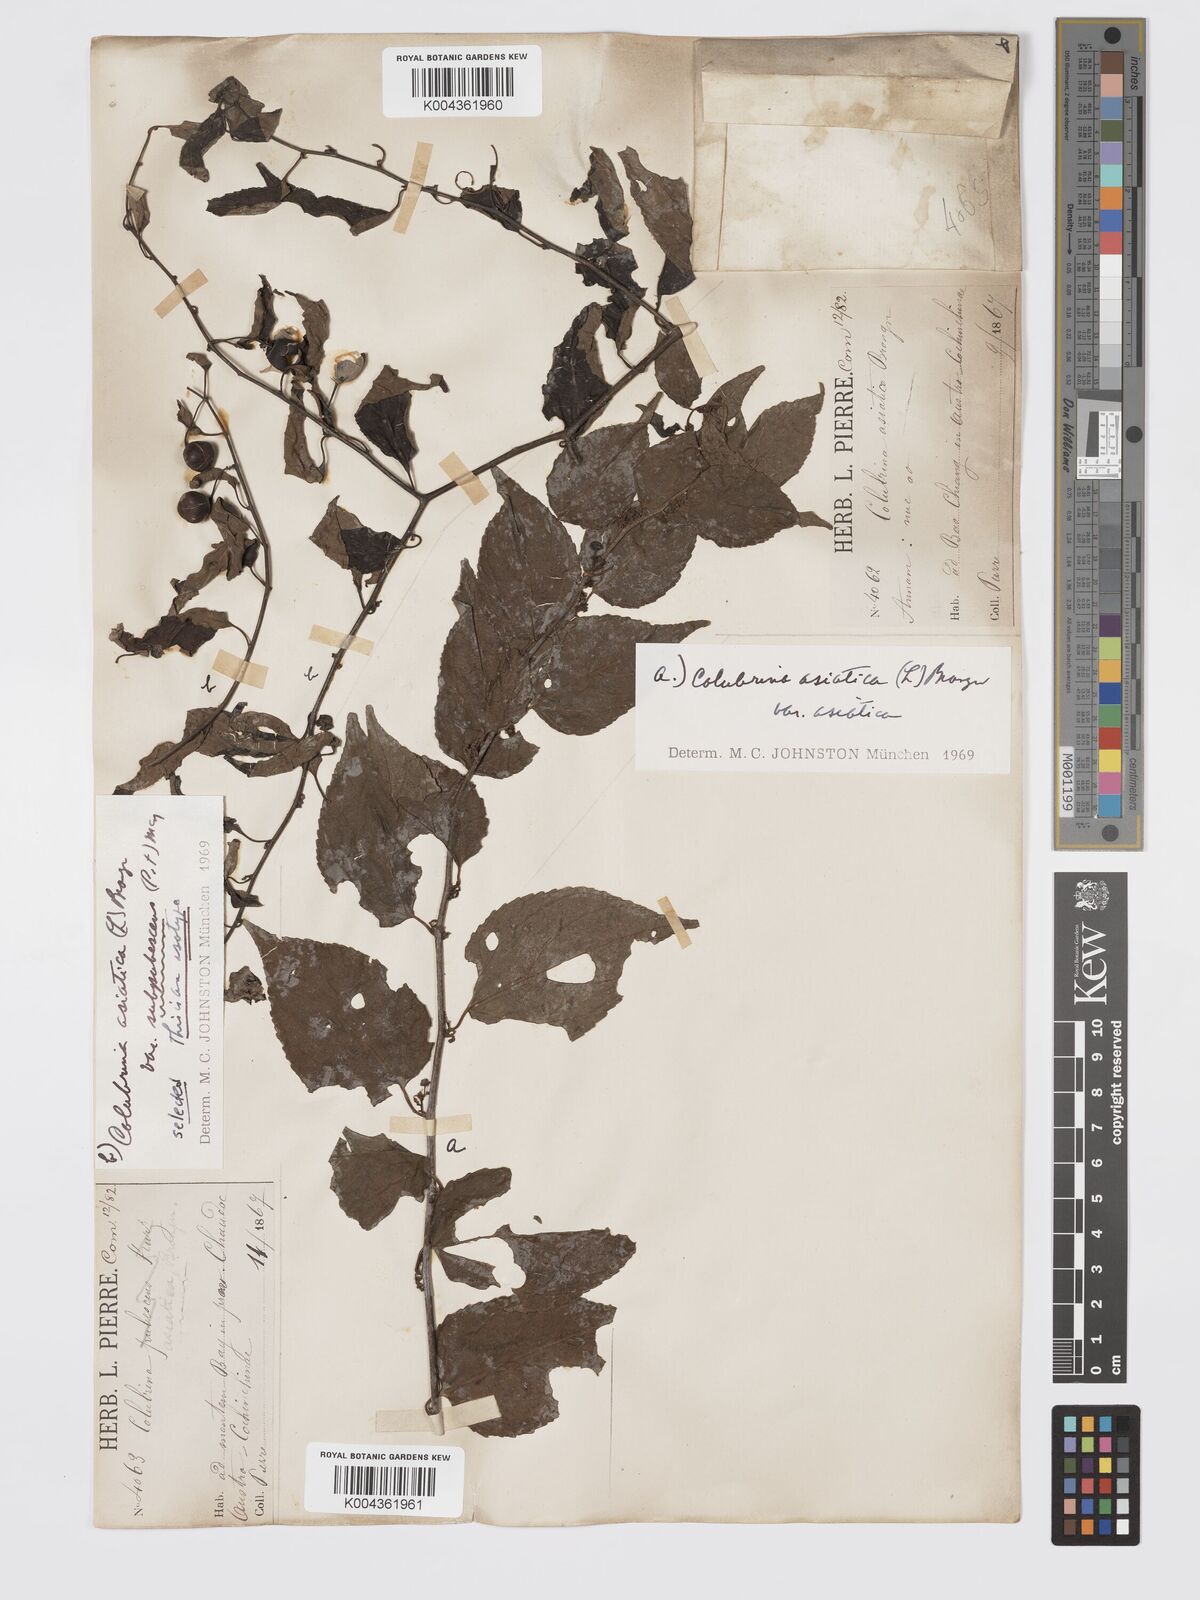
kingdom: Plantae
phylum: Tracheophyta
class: Magnoliopsida
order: Rosales
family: Rhamnaceae
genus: Colubrina
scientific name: Colubrina asiatica
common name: Asian nakedwood
